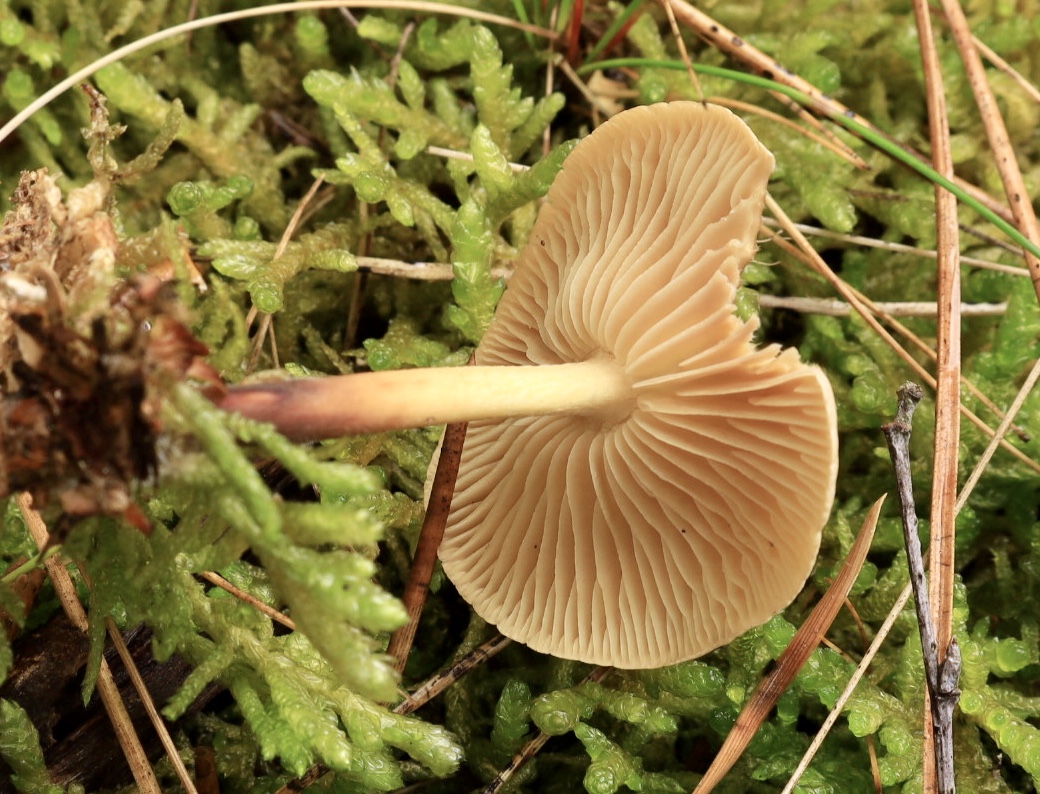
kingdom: Fungi
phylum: Basidiomycota
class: Agaricomycetes
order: Agaricales
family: Omphalotaceae
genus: Collybiopsis
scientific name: Collybiopsis peronata
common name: bestøvlet fladhat
